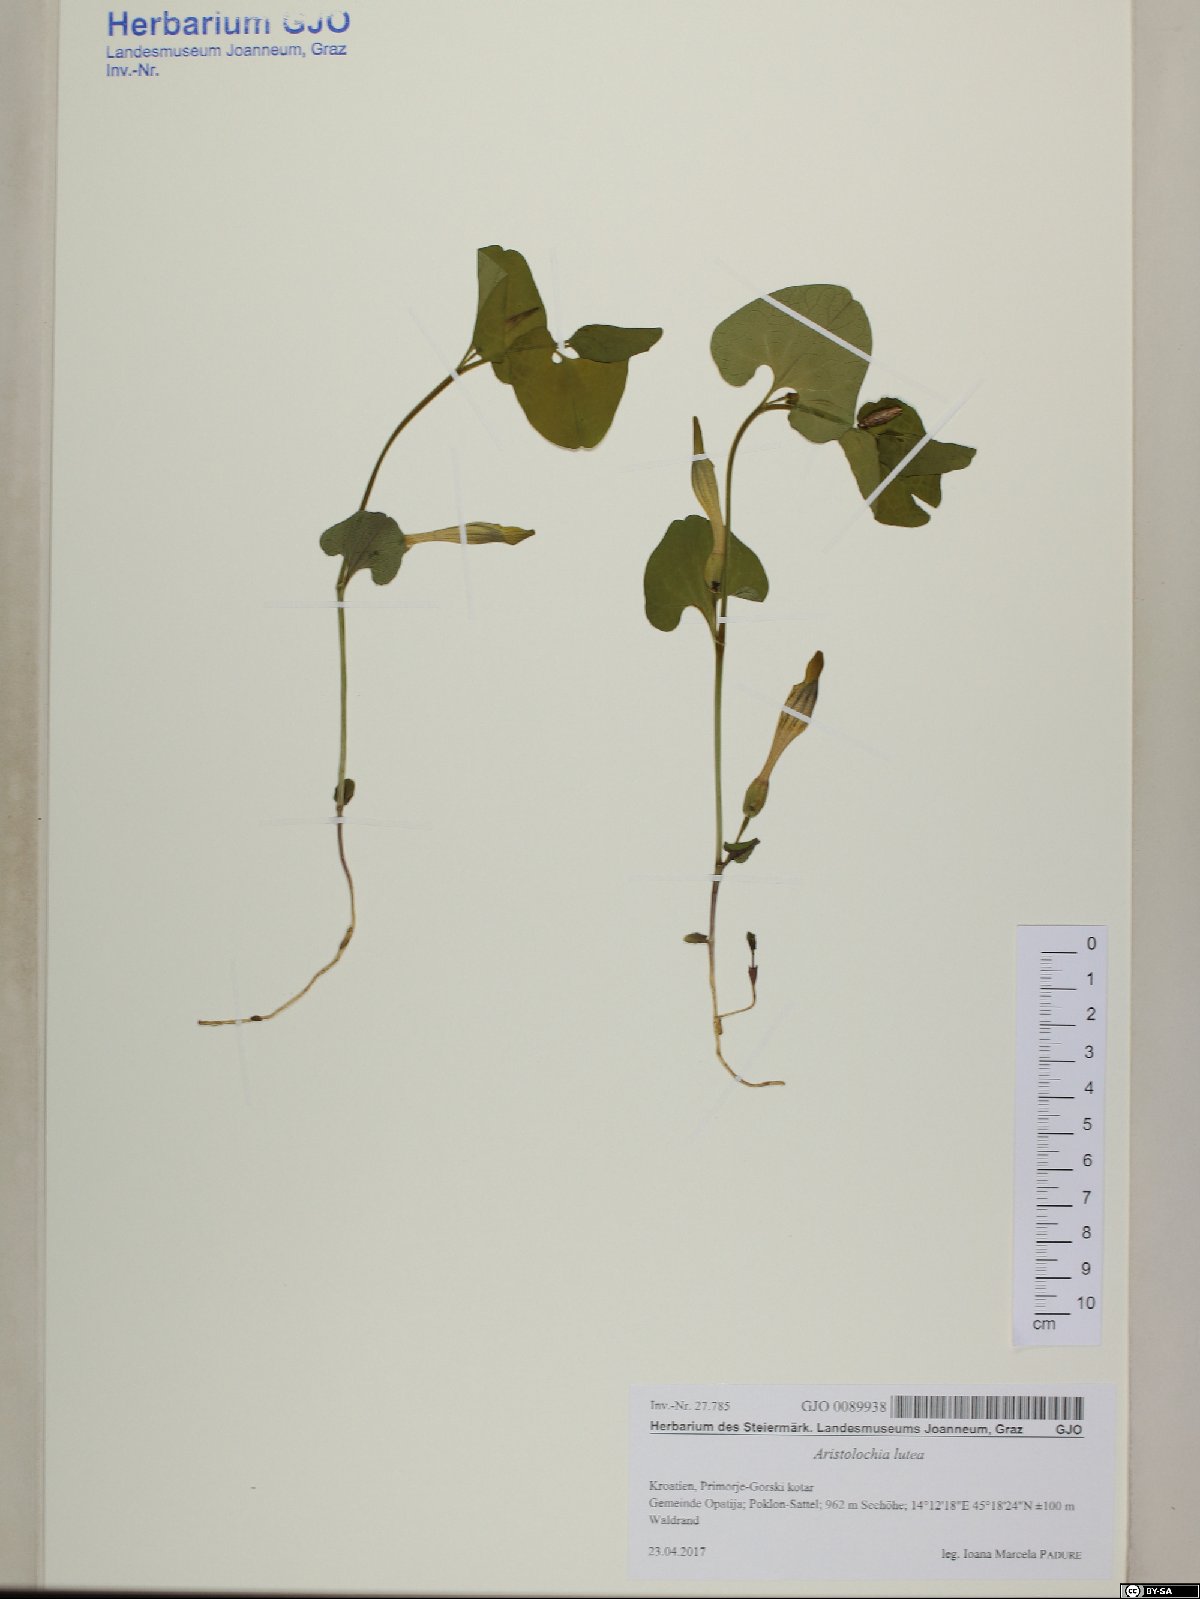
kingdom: Plantae
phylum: Tracheophyta
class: Magnoliopsida
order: Piperales
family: Aristolochiaceae
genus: Aristolochia
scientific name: Aristolochia lutea
